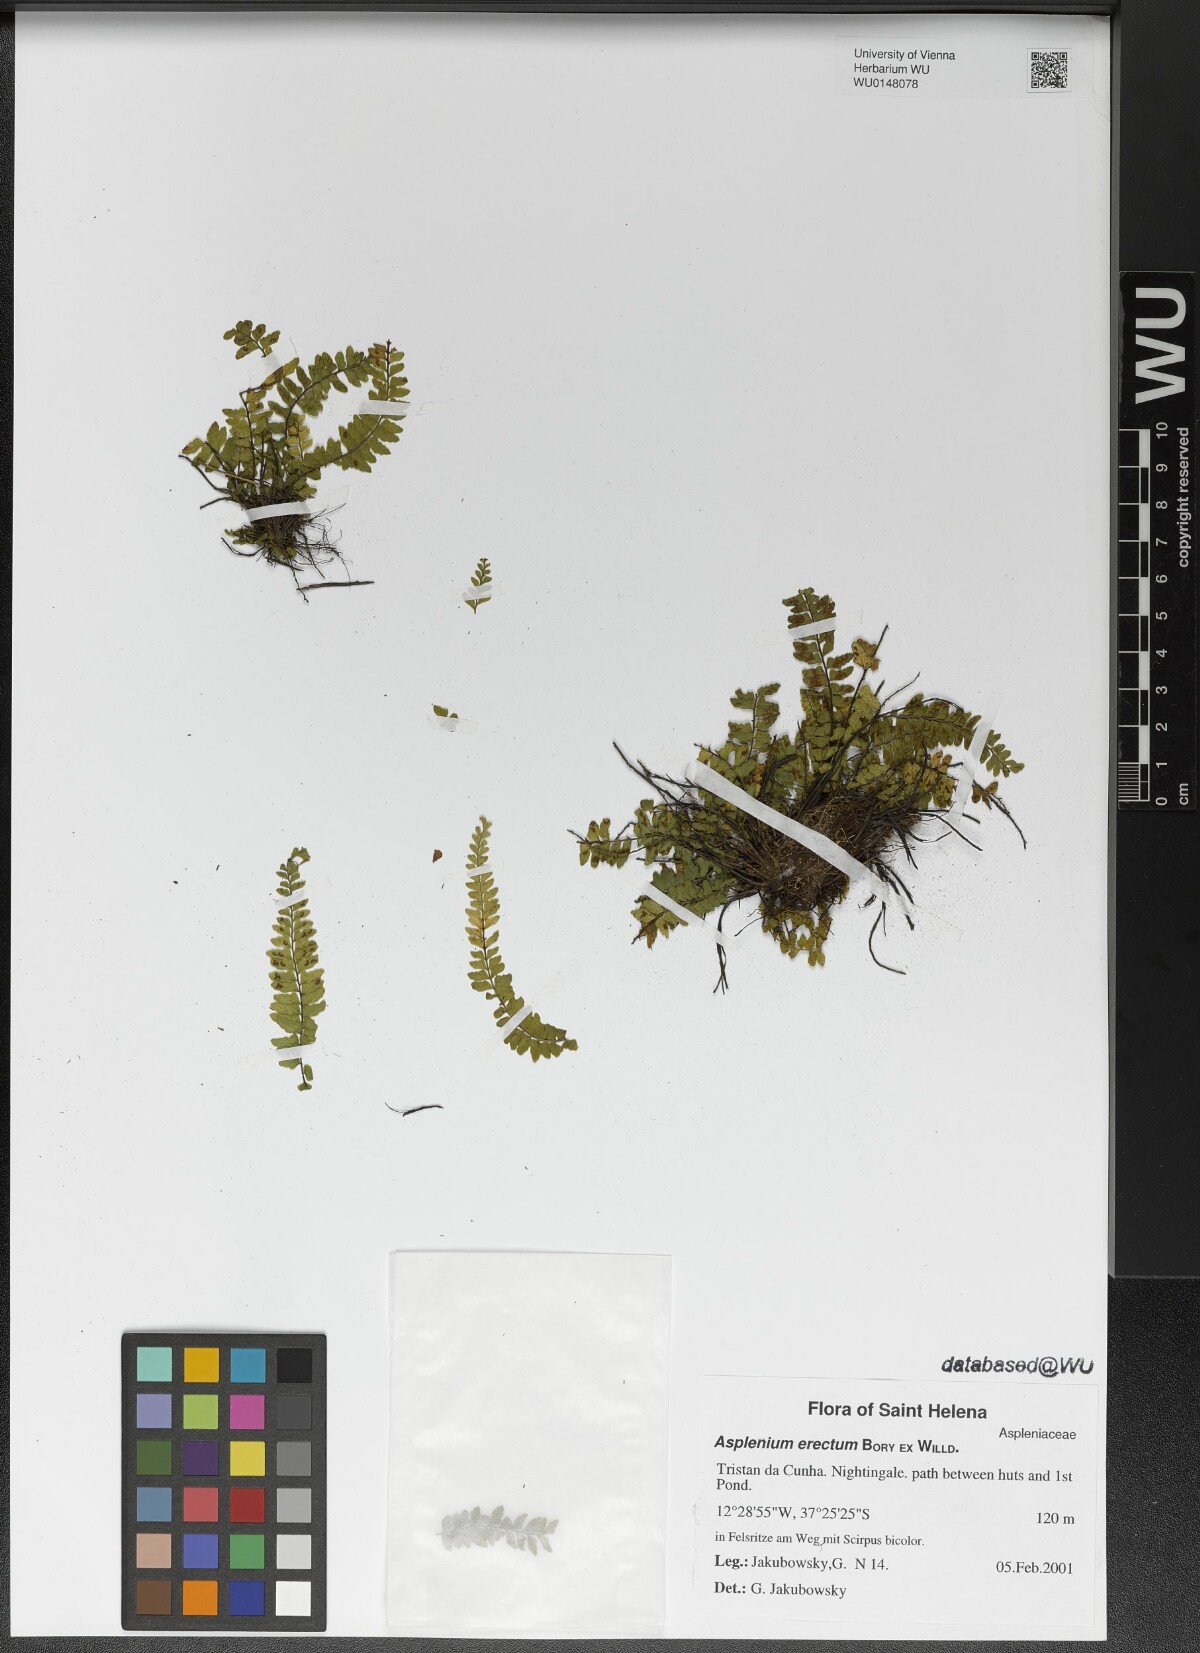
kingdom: Plantae
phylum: Tracheophyta
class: Polypodiopsida
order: Polypodiales
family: Aspleniaceae
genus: Asplenium
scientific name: Asplenium erectum
